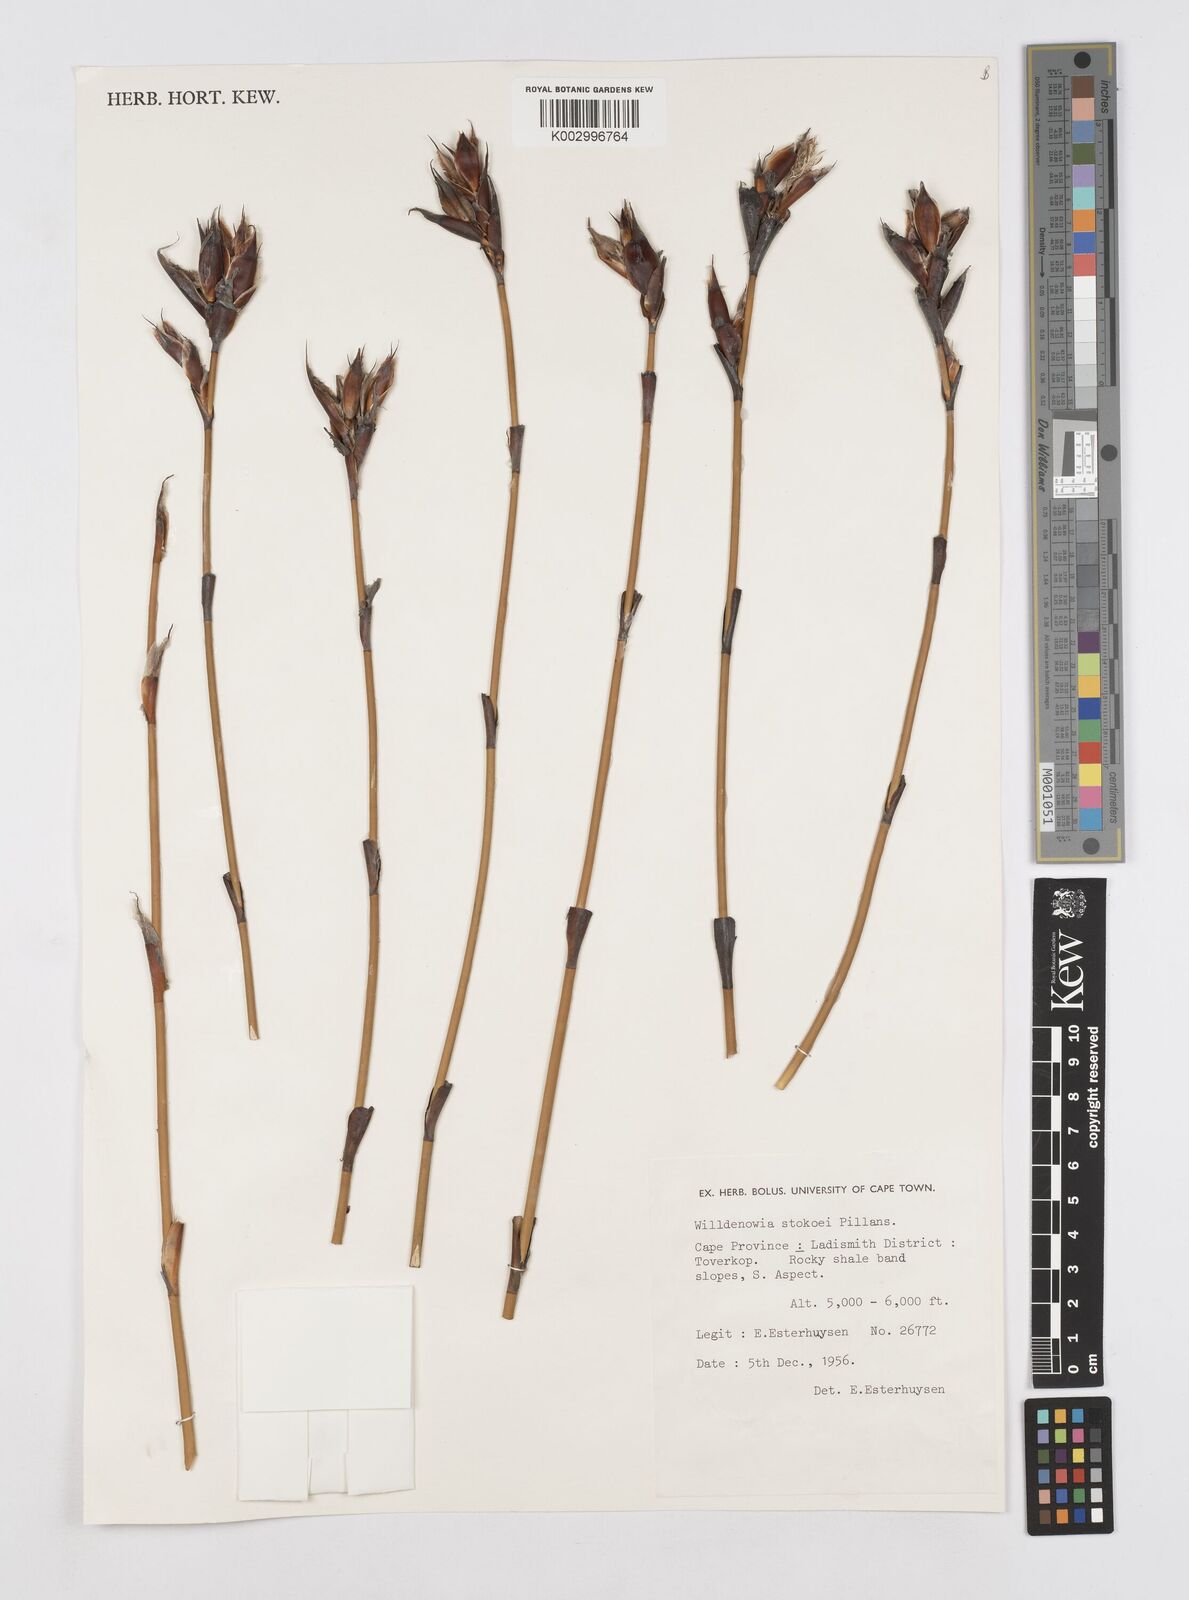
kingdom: Plantae
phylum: Tracheophyta
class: Liliopsida
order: Poales
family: Restionaceae
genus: Willdenowia
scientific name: Willdenowia stokoei
